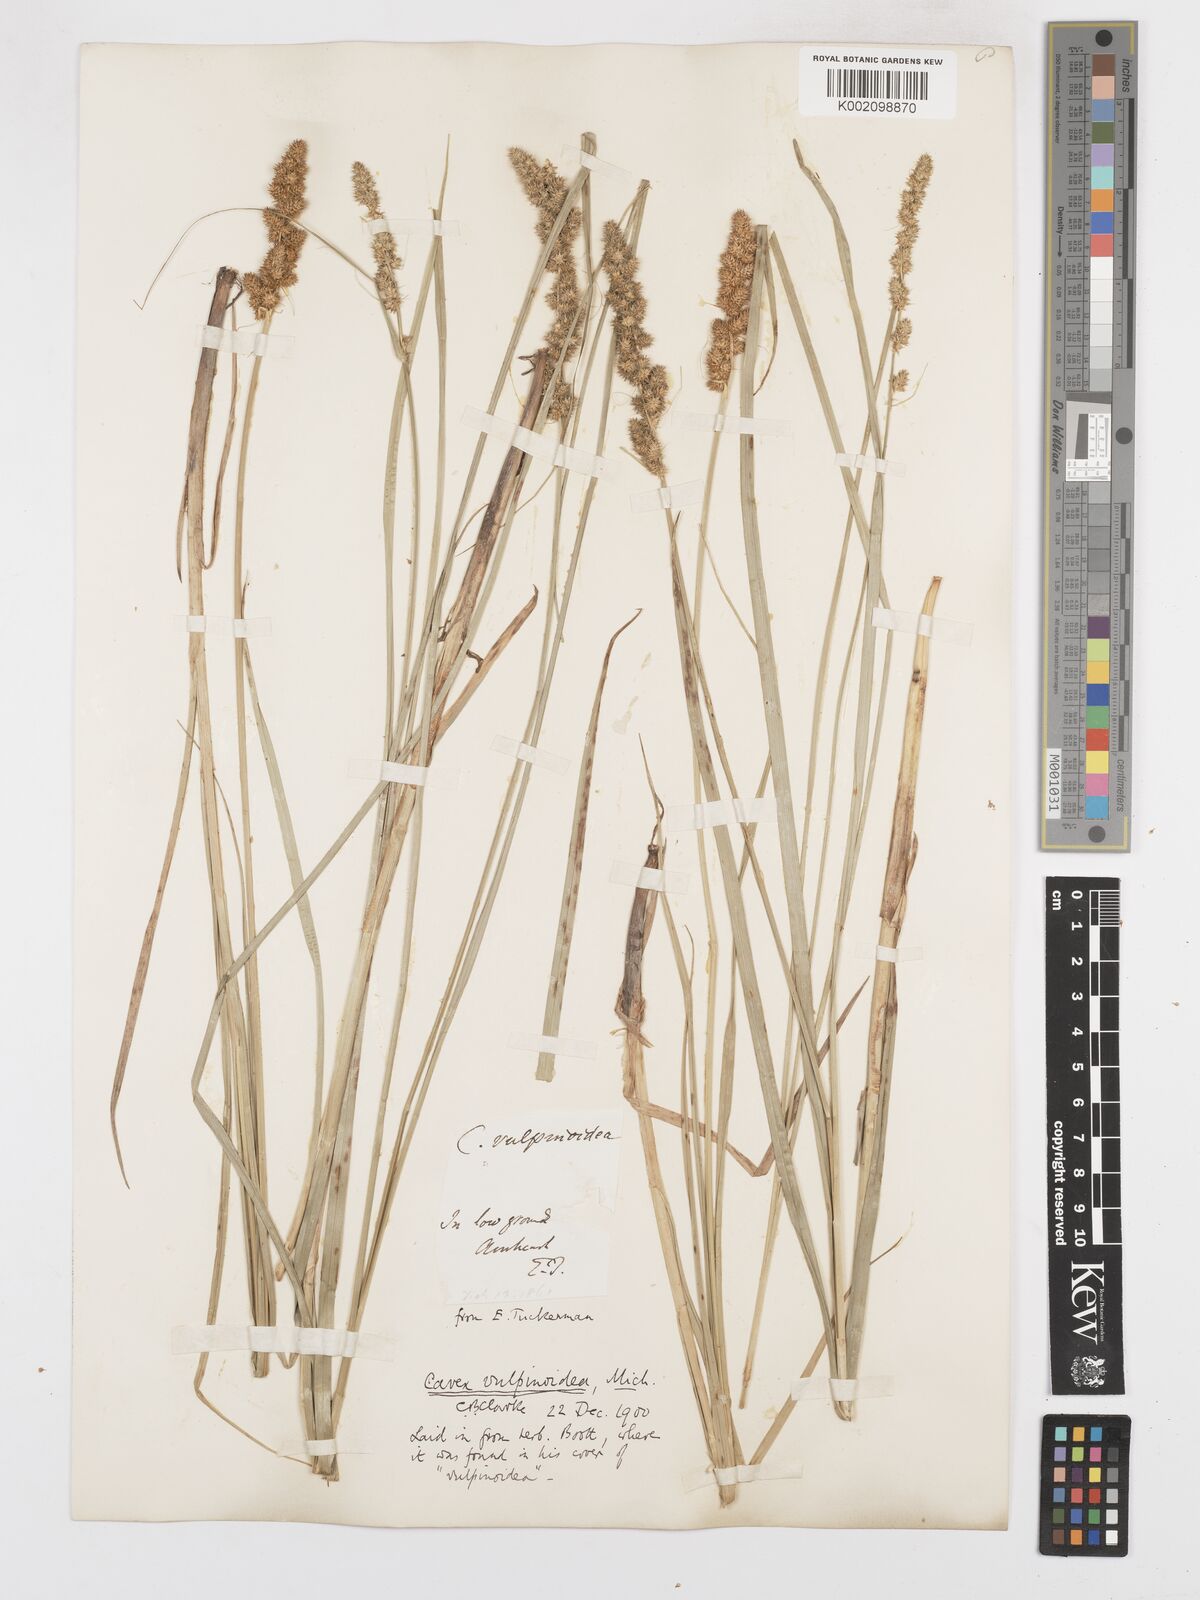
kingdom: Plantae
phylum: Tracheophyta
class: Liliopsida
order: Poales
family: Cyperaceae
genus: Carex
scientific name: Carex vulpinoidea
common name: American fox-sedge
